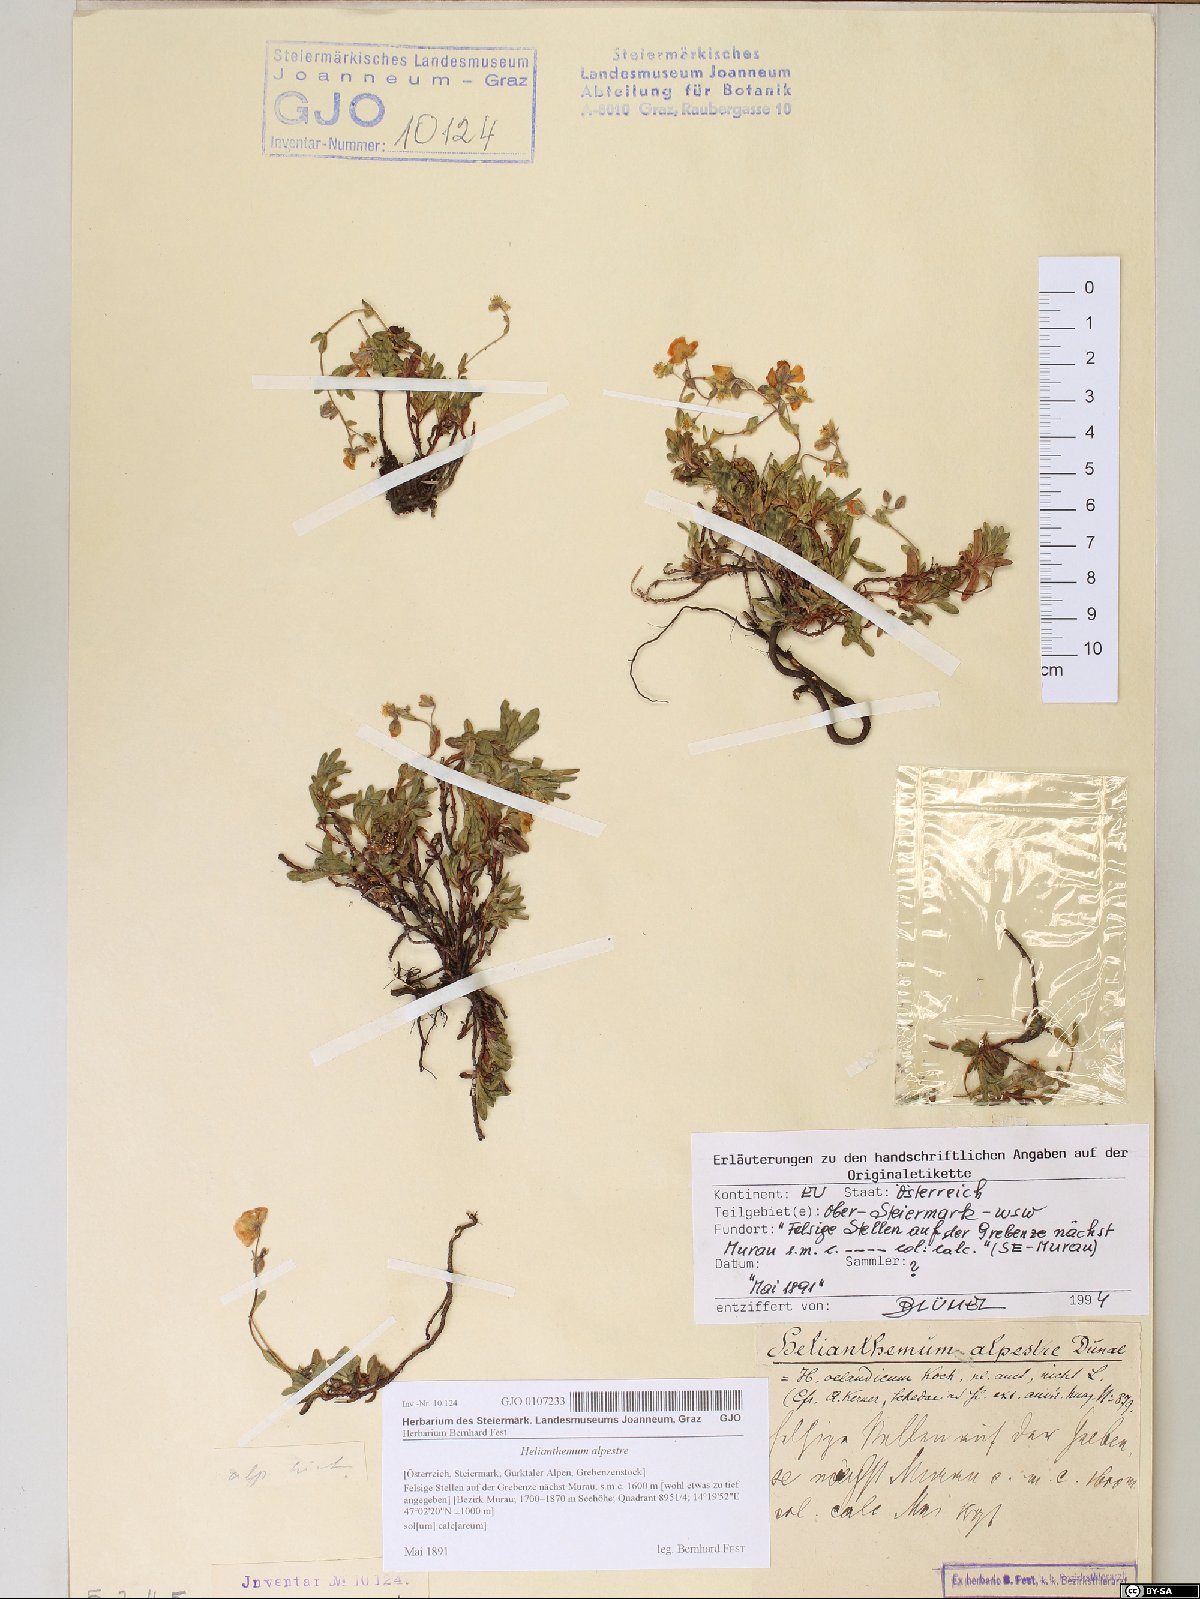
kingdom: Plantae
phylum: Tracheophyta
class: Magnoliopsida
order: Malvales
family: Cistaceae
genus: Helianthemum
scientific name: Helianthemum alpestre
